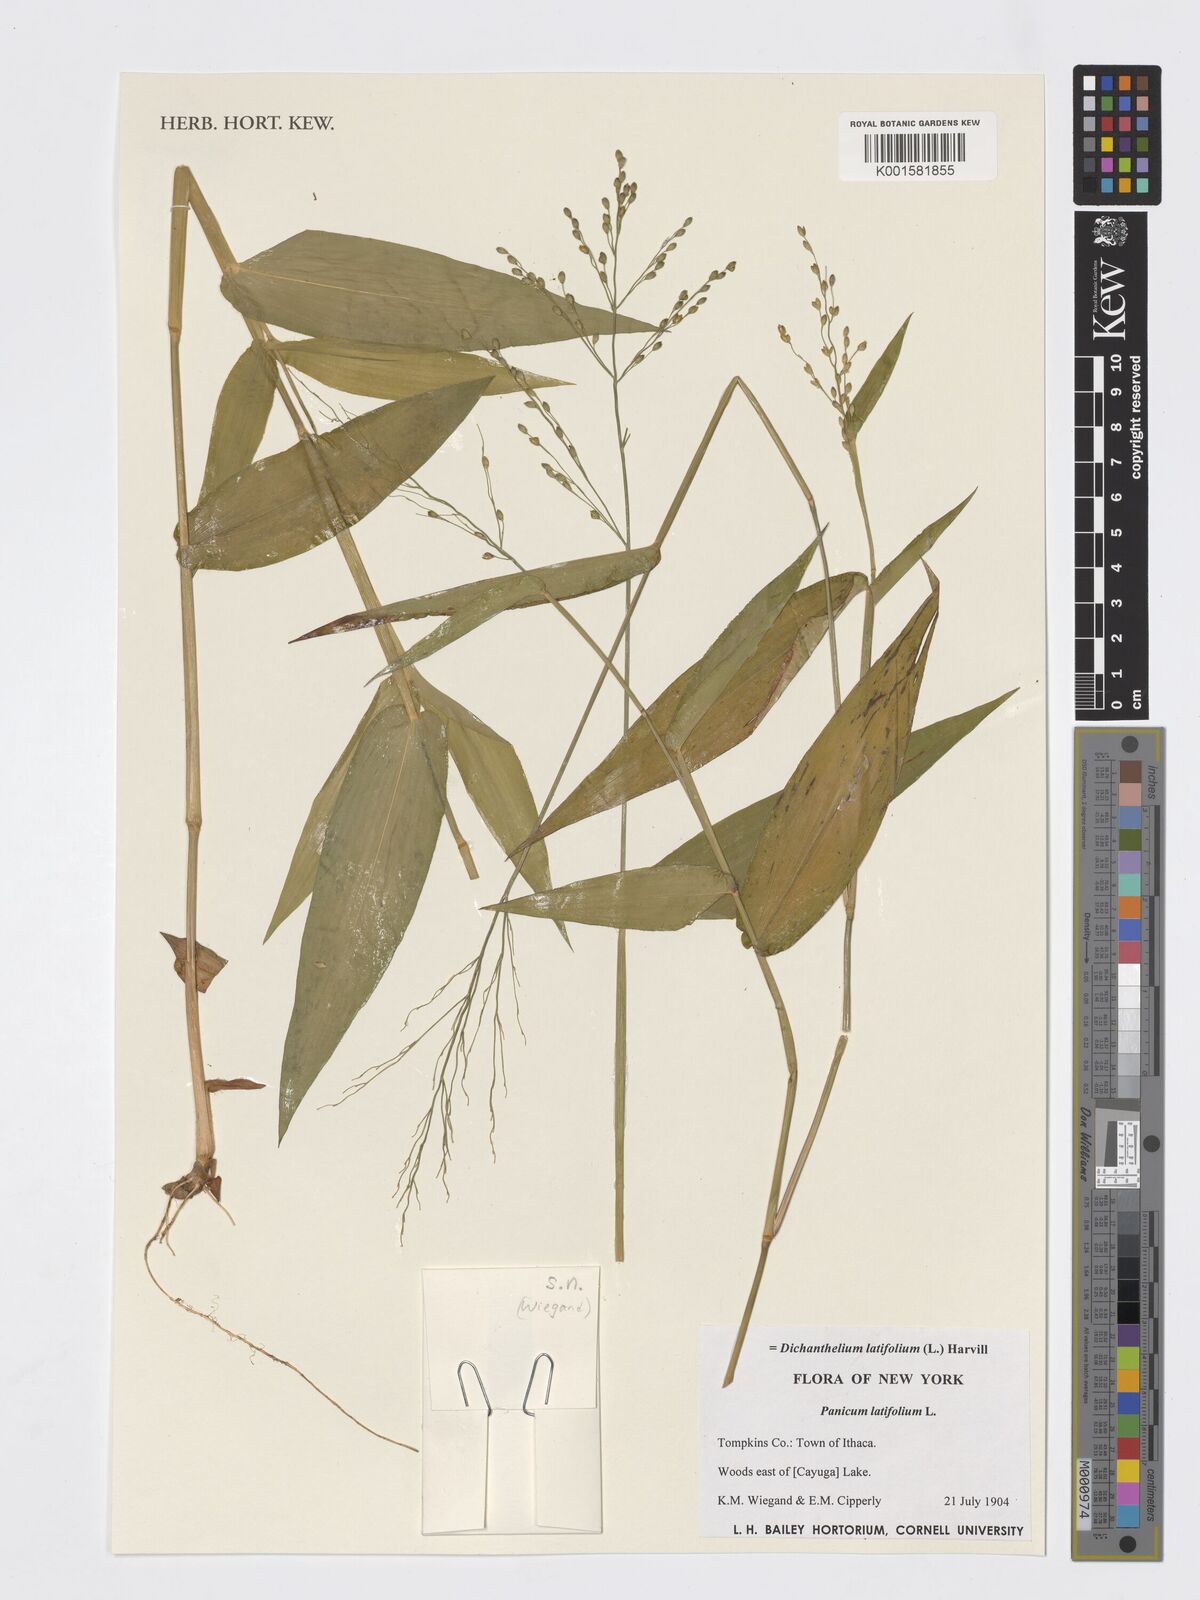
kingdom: Plantae
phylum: Tracheophyta
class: Liliopsida
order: Poales
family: Poaceae
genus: Dichanthelium
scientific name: Dichanthelium latifolium
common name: Broad-leaved panicgrass
